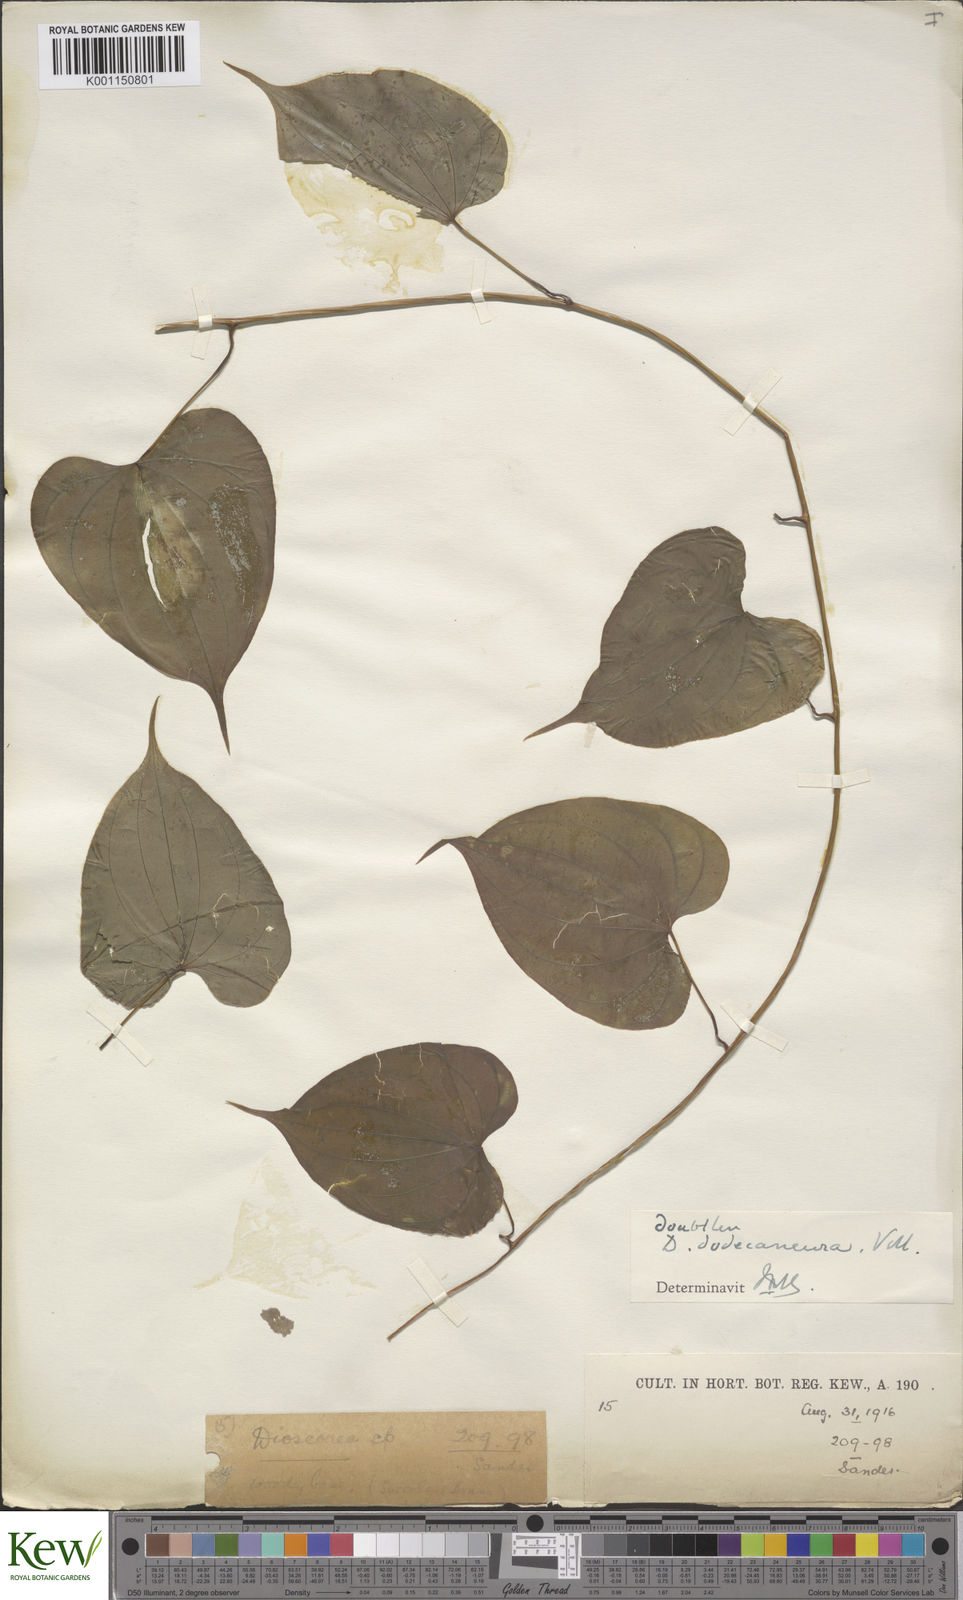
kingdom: Plantae
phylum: Tracheophyta
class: Liliopsida
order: Dioscoreales
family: Dioscoreaceae
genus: Dioscorea
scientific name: Dioscorea dodecaneura
